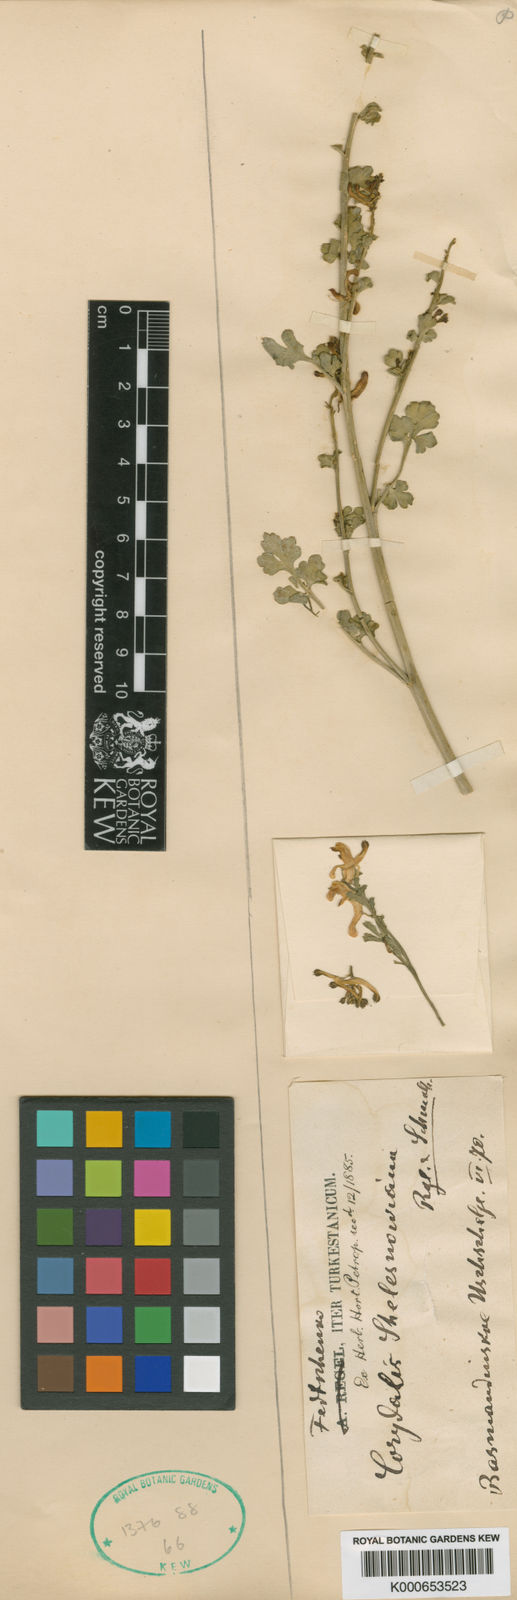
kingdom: Plantae
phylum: Tracheophyta
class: Magnoliopsida
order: Ranunculales
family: Papaveraceae
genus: Corydalis
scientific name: Corydalis schelesnowiana
